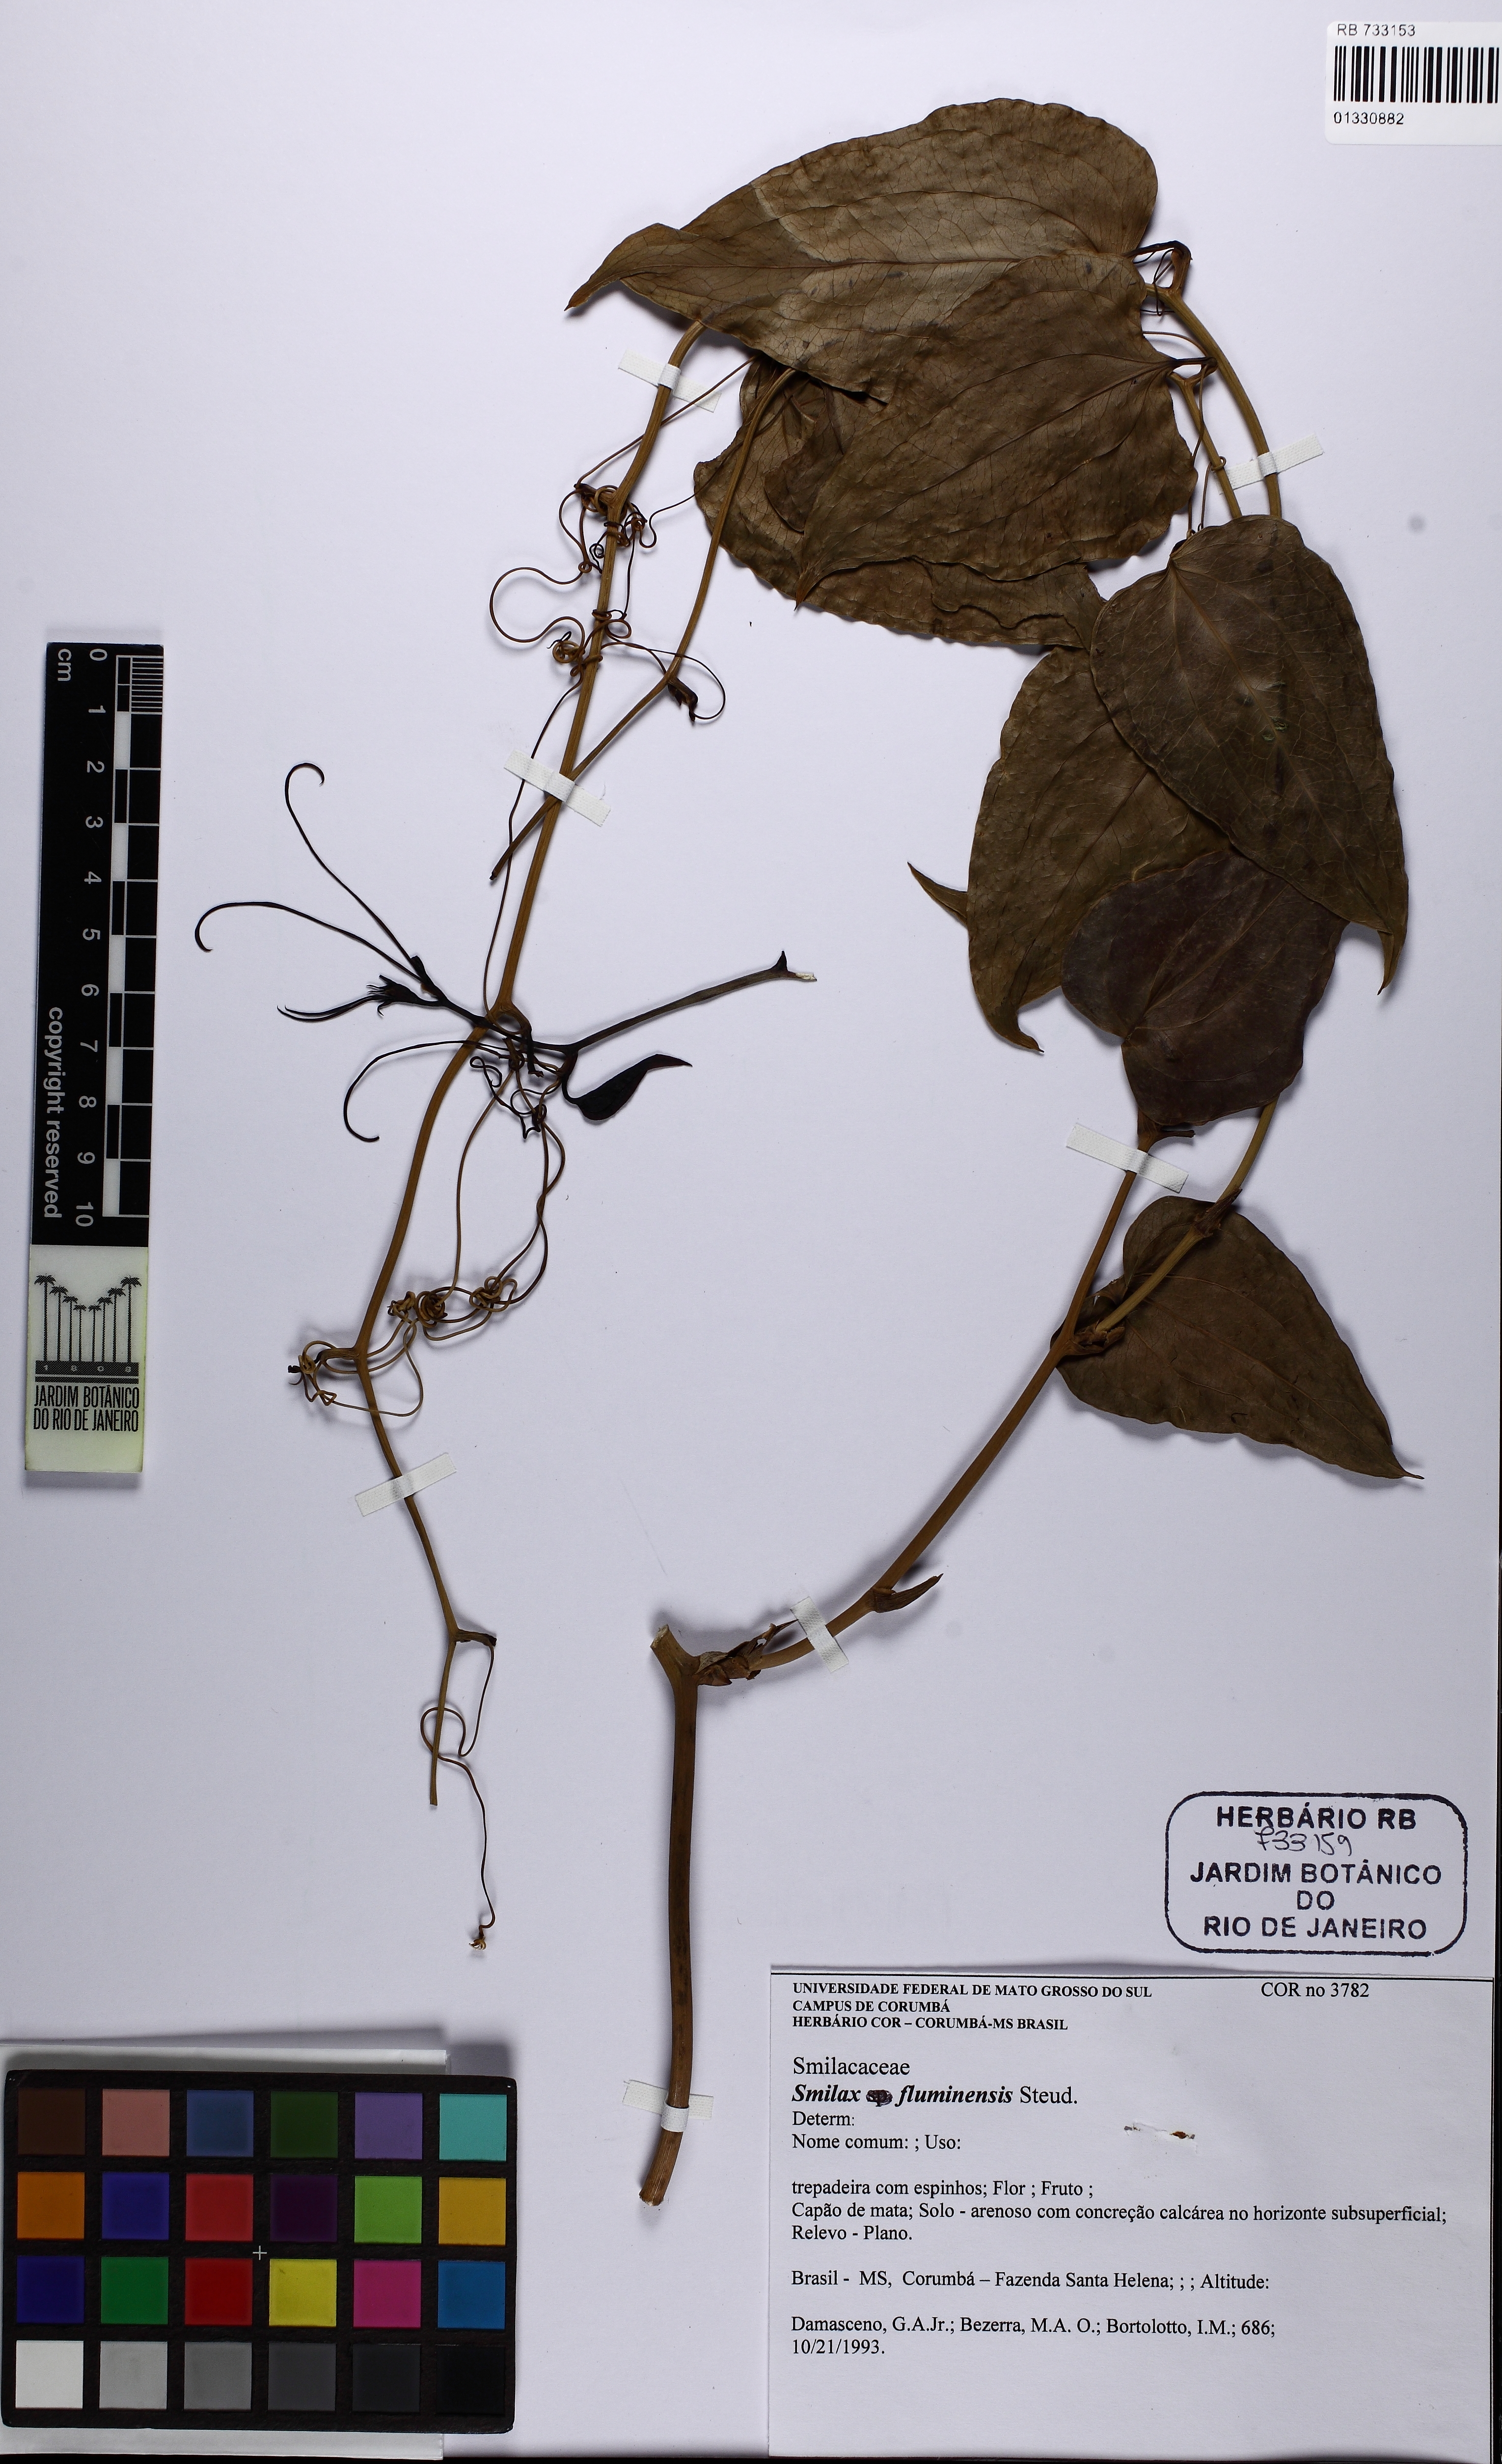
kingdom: Plantae
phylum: Tracheophyta
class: Liliopsida
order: Liliales
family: Smilacaceae
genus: Smilax
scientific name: Smilax fluminensis
